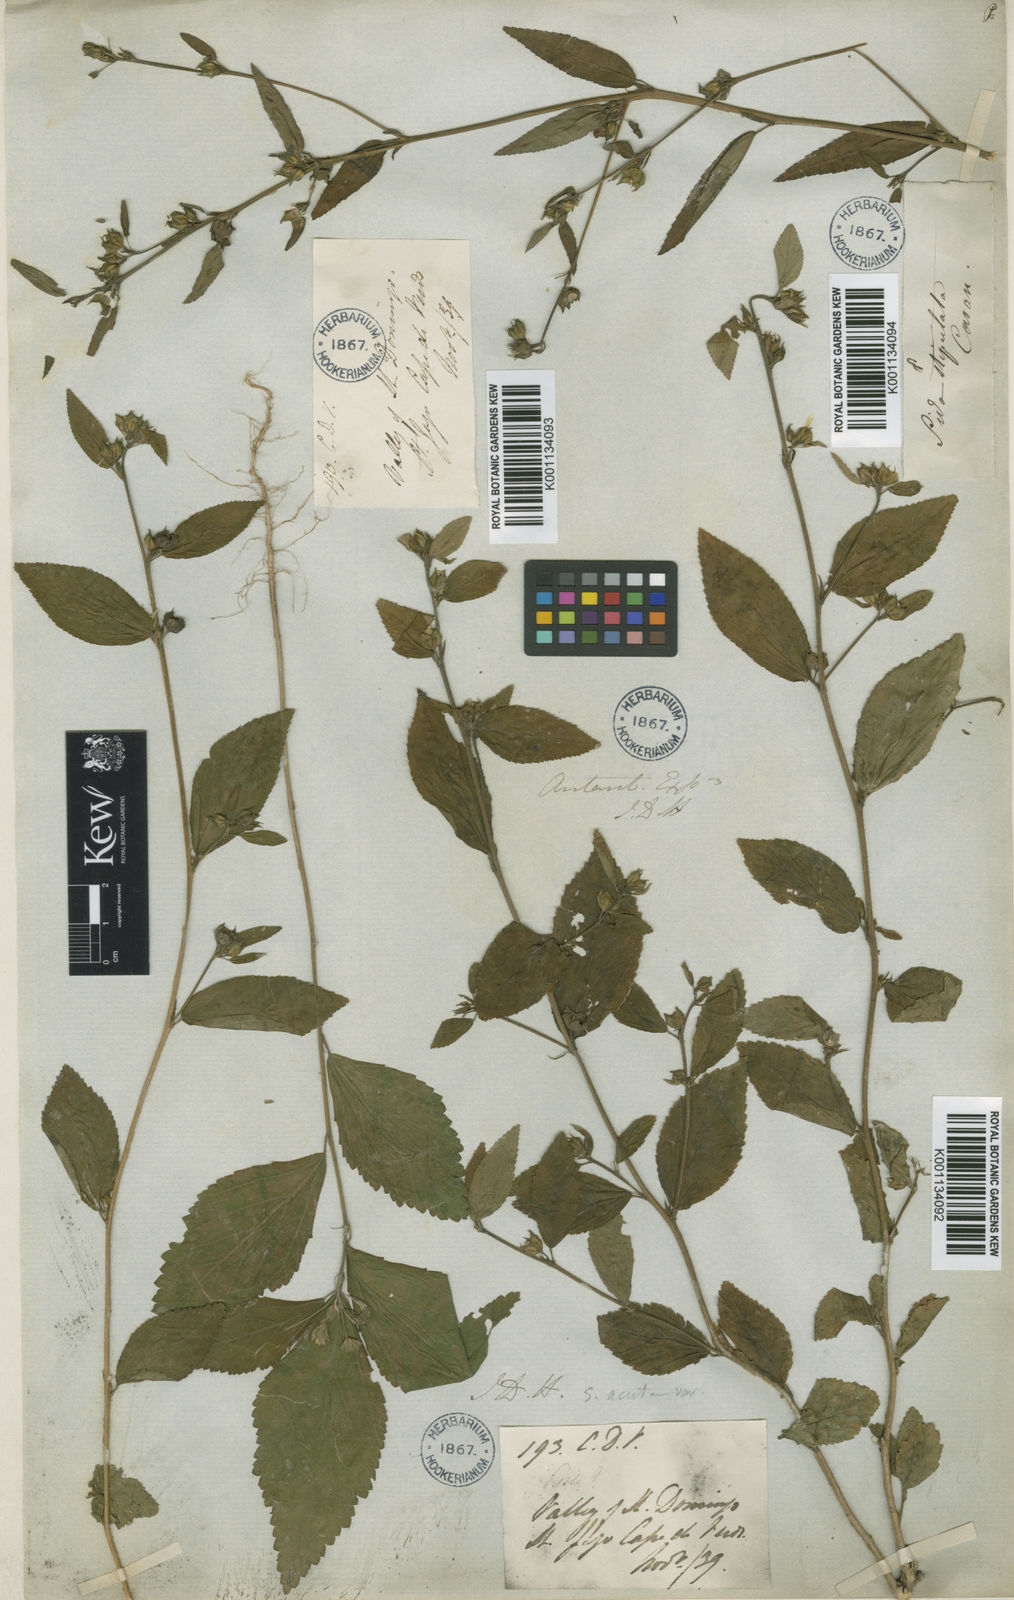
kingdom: Plantae
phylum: Tracheophyta
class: Magnoliopsida
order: Malvales
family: Malvaceae
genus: Sida
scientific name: Sida acuta
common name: Common wireweed
